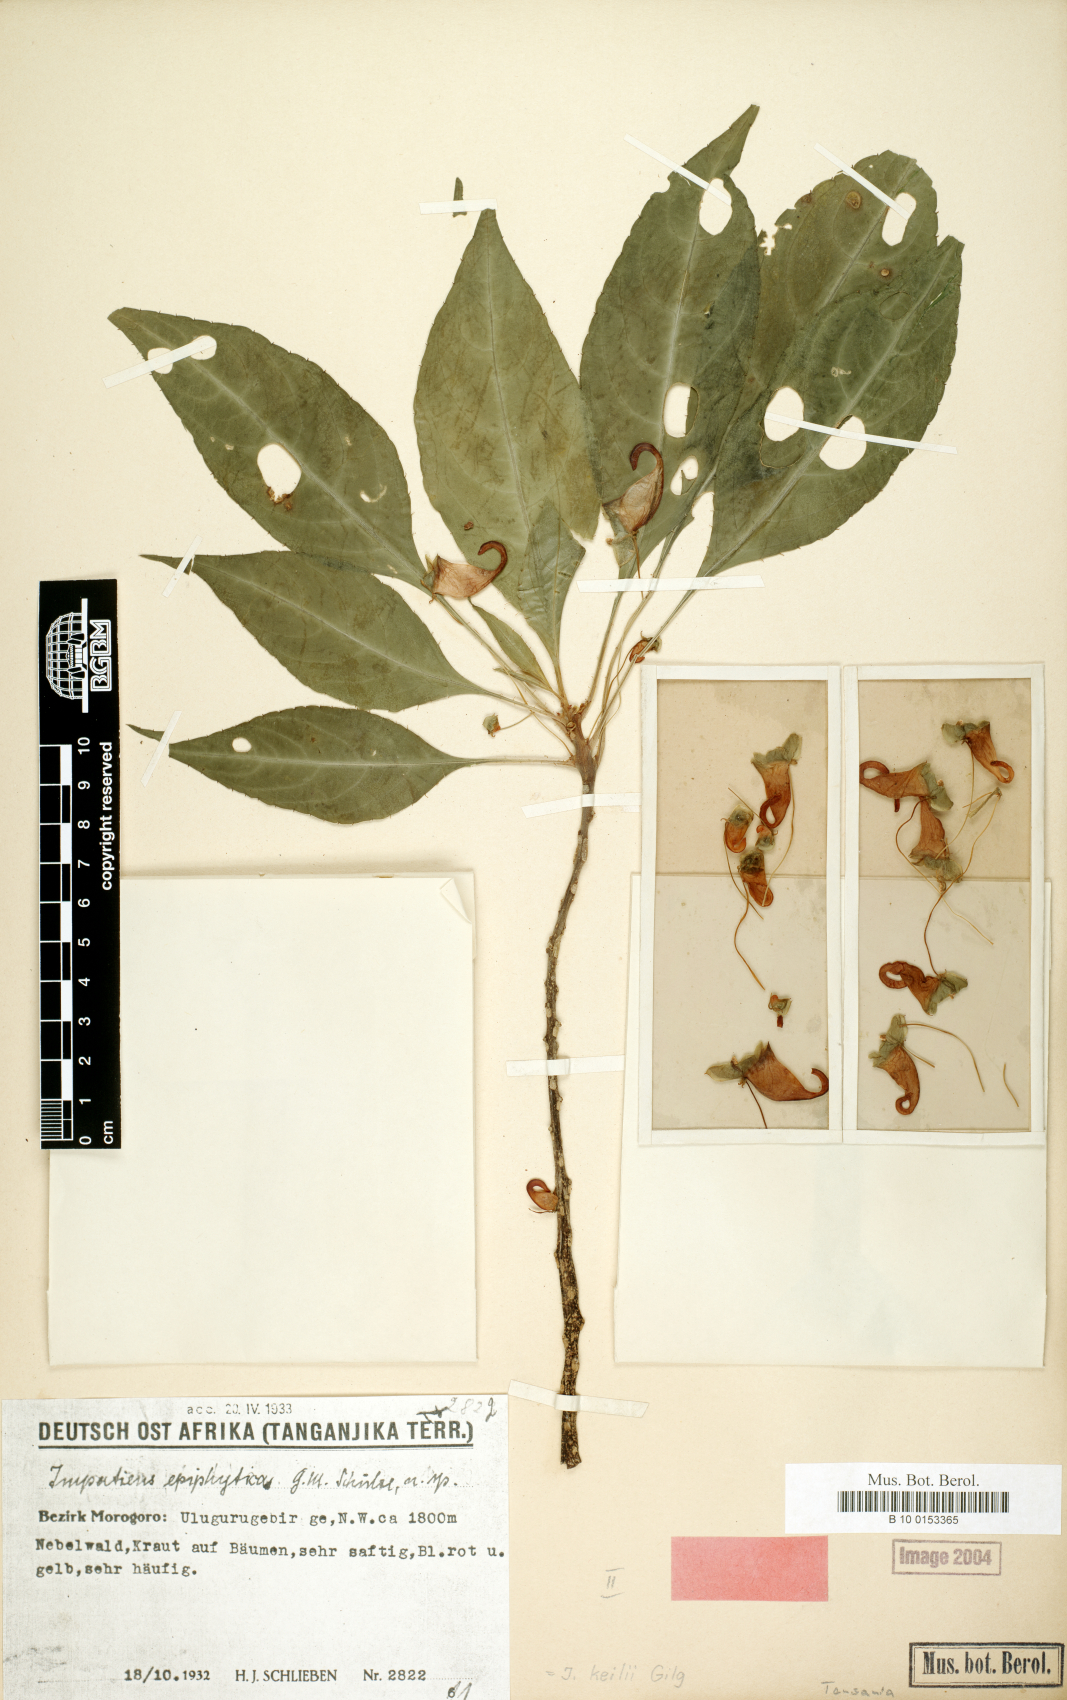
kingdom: Plantae
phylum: Tracheophyta
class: Magnoliopsida
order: Ericales
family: Balsaminaceae
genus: Impatiens
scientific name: Impatiens keilii
